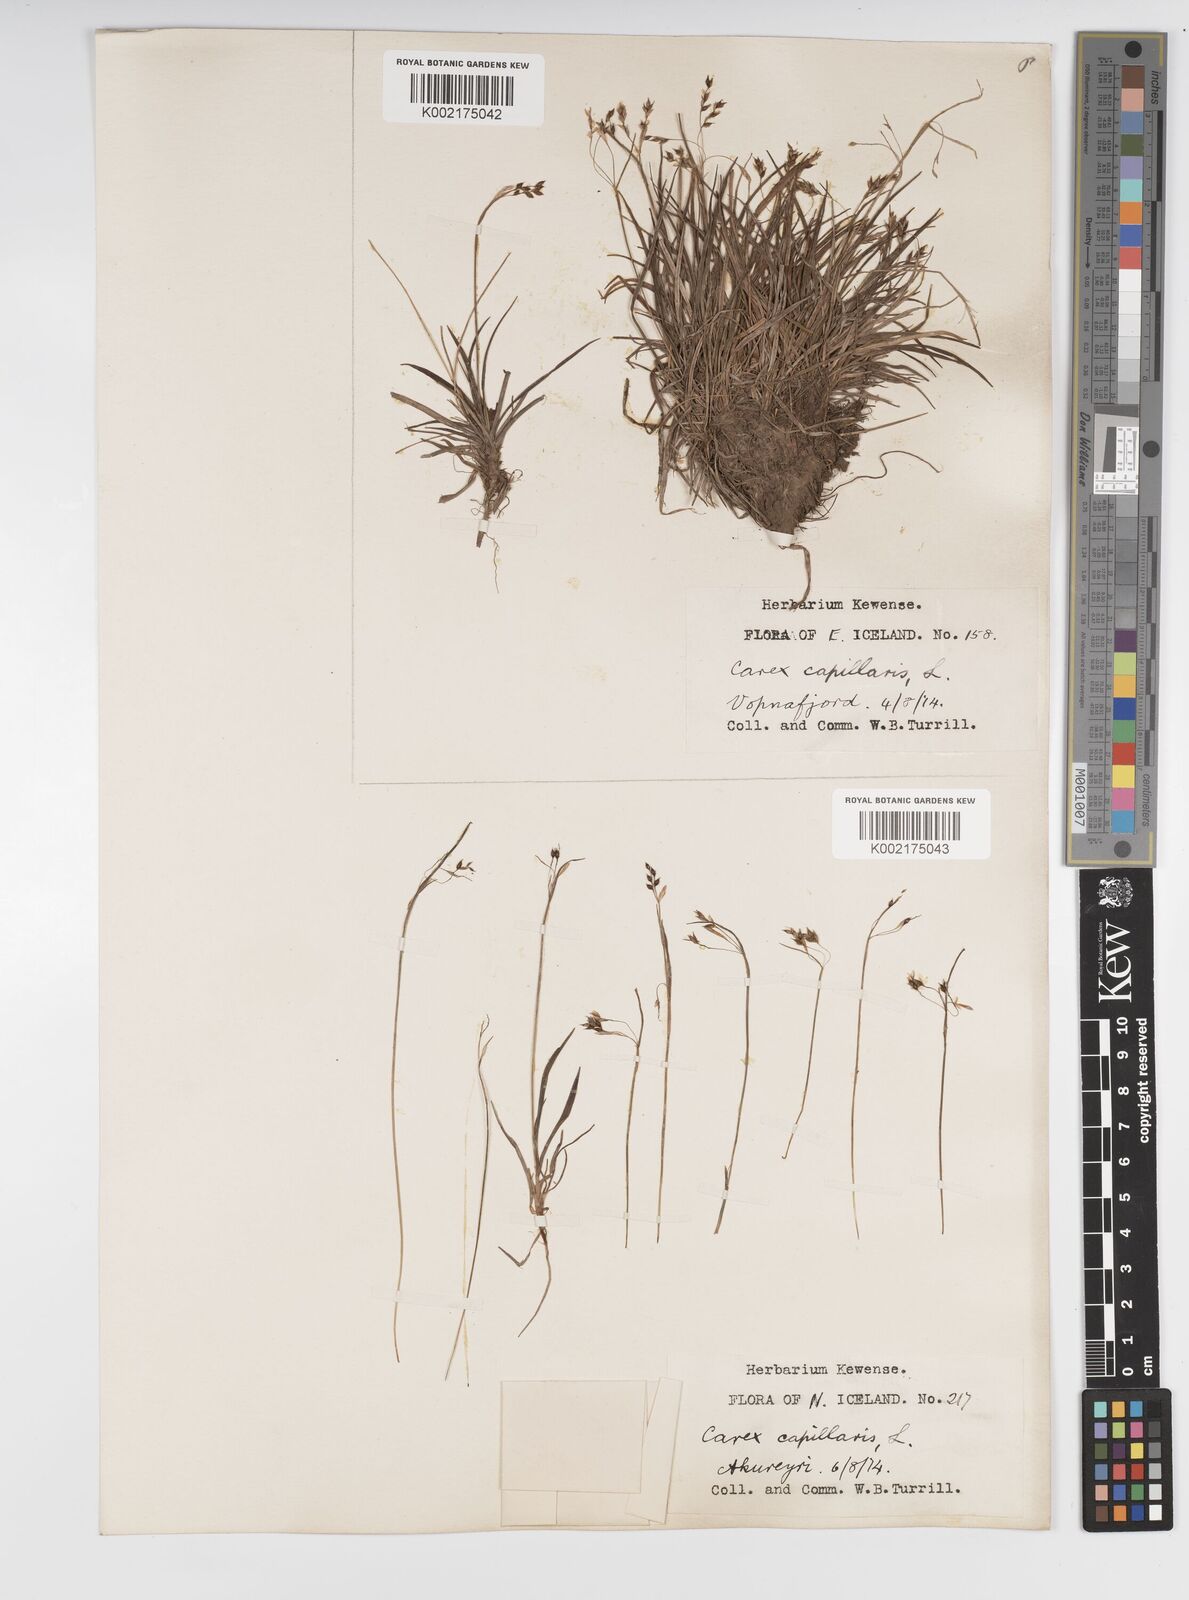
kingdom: Plantae
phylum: Tracheophyta
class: Liliopsida
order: Poales
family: Cyperaceae
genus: Carex
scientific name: Carex capillaris
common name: Hair sedge
